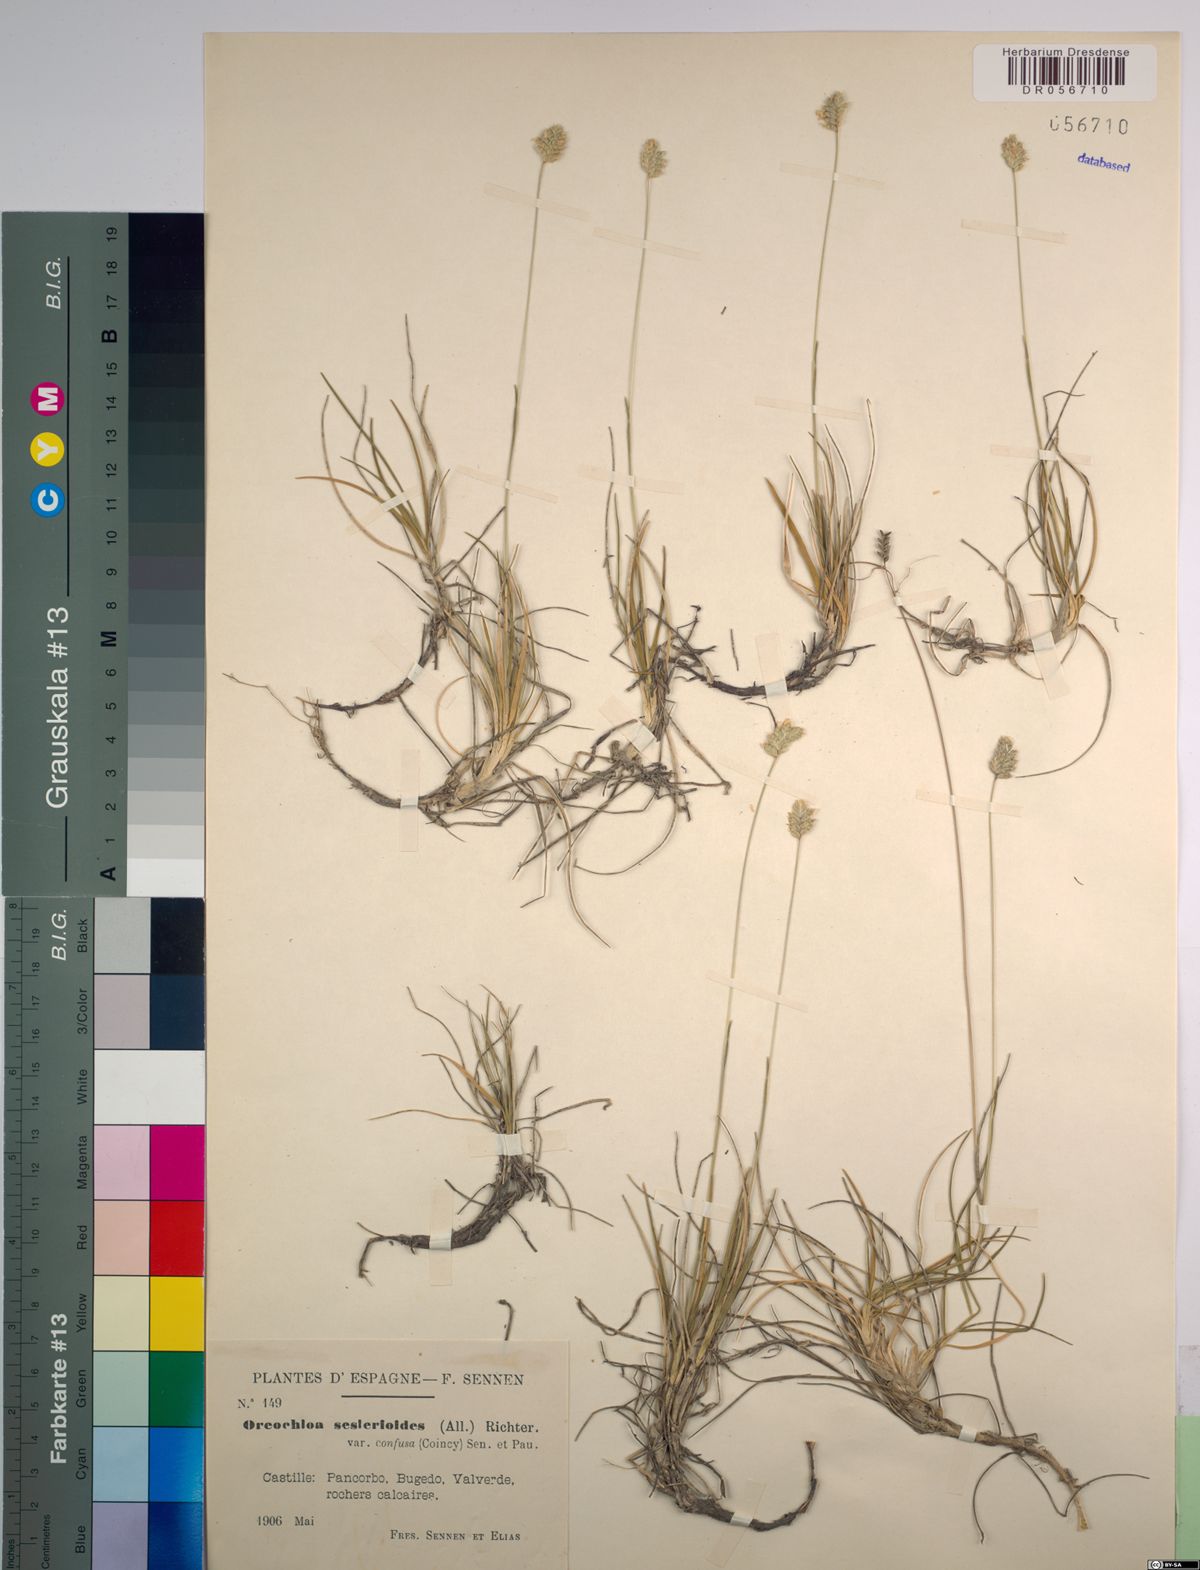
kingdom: Plantae
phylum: Tracheophyta
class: Liliopsida
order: Poales
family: Poaceae
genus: Oreochloa
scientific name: Oreochloa seslerioides
